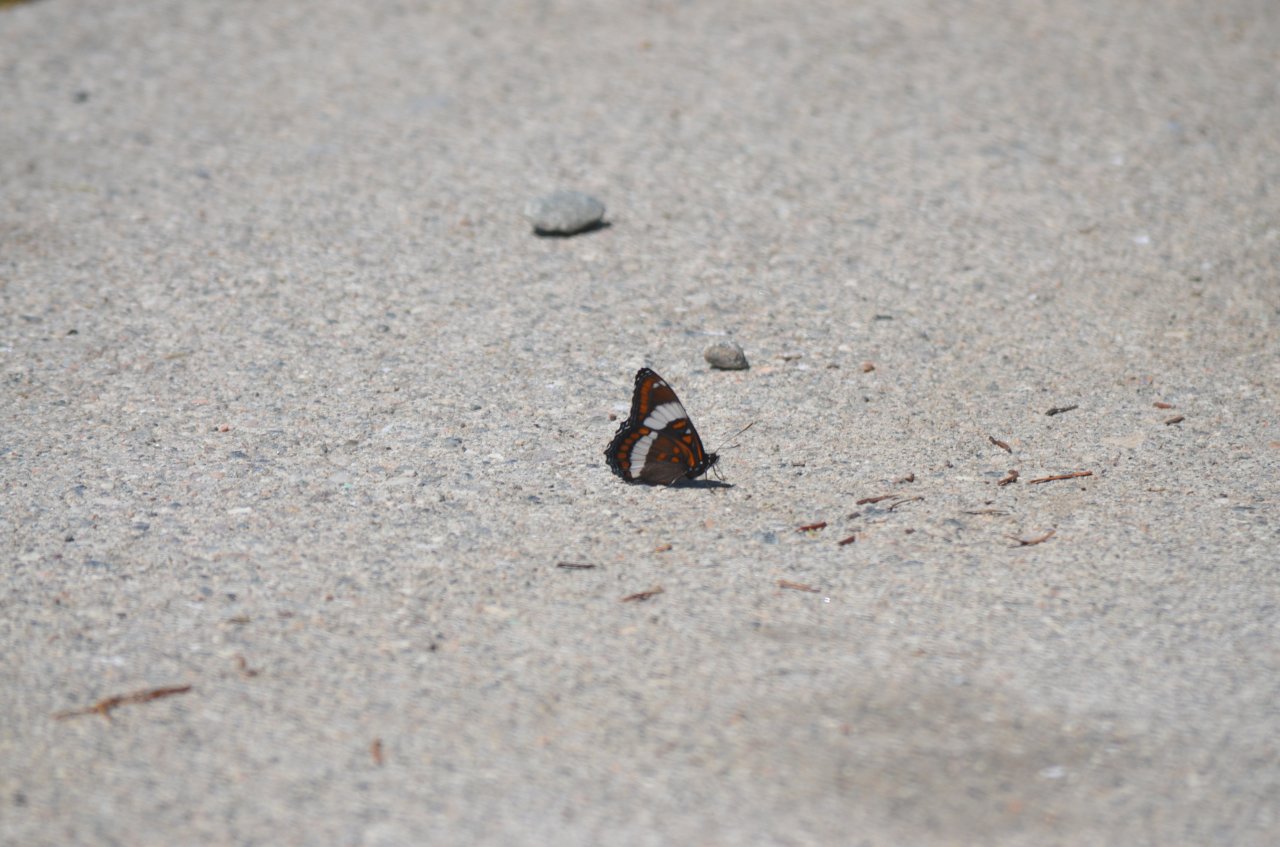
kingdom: Animalia
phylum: Arthropoda
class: Insecta
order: Lepidoptera
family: Nymphalidae
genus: Limenitis
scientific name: Limenitis arthemis
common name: Red-spotted Admiral
